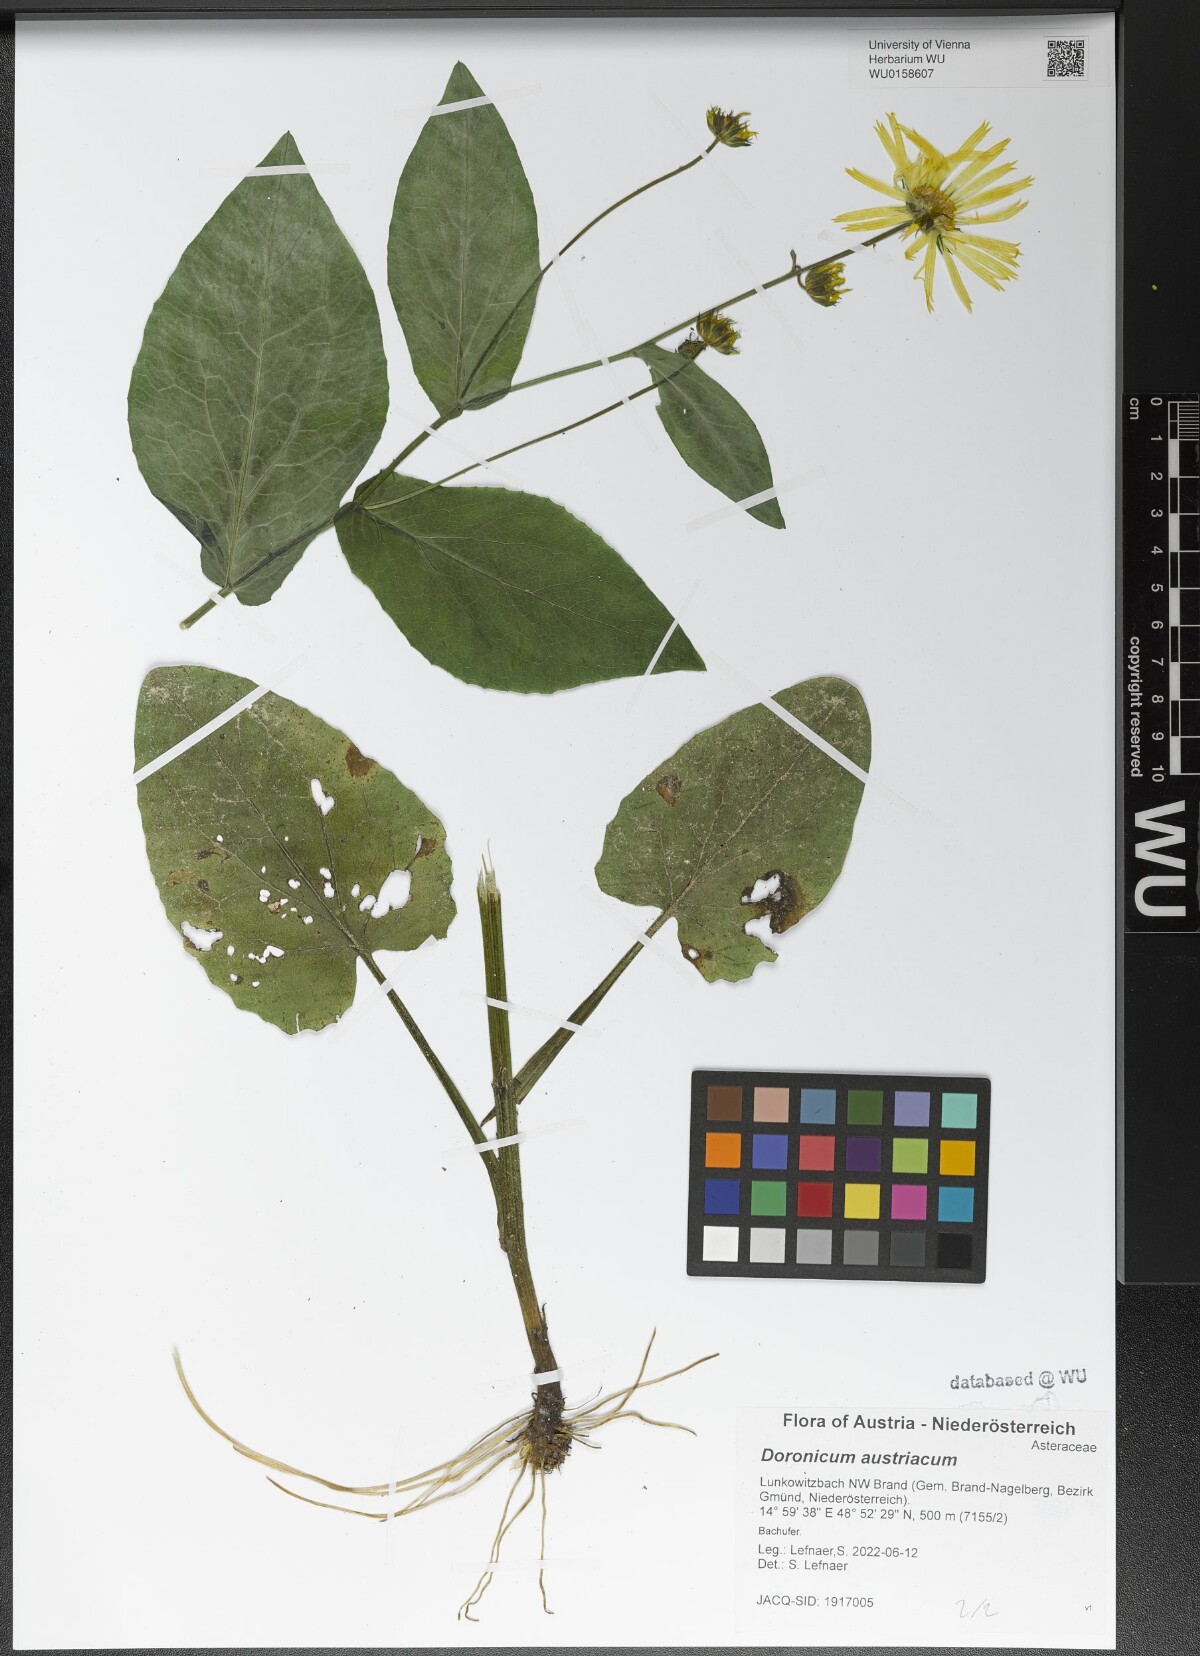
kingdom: Plantae
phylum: Tracheophyta
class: Magnoliopsida
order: Asterales
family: Asteraceae
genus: Doronicum
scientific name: Doronicum austriacum
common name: Austrian leopard's-bane
